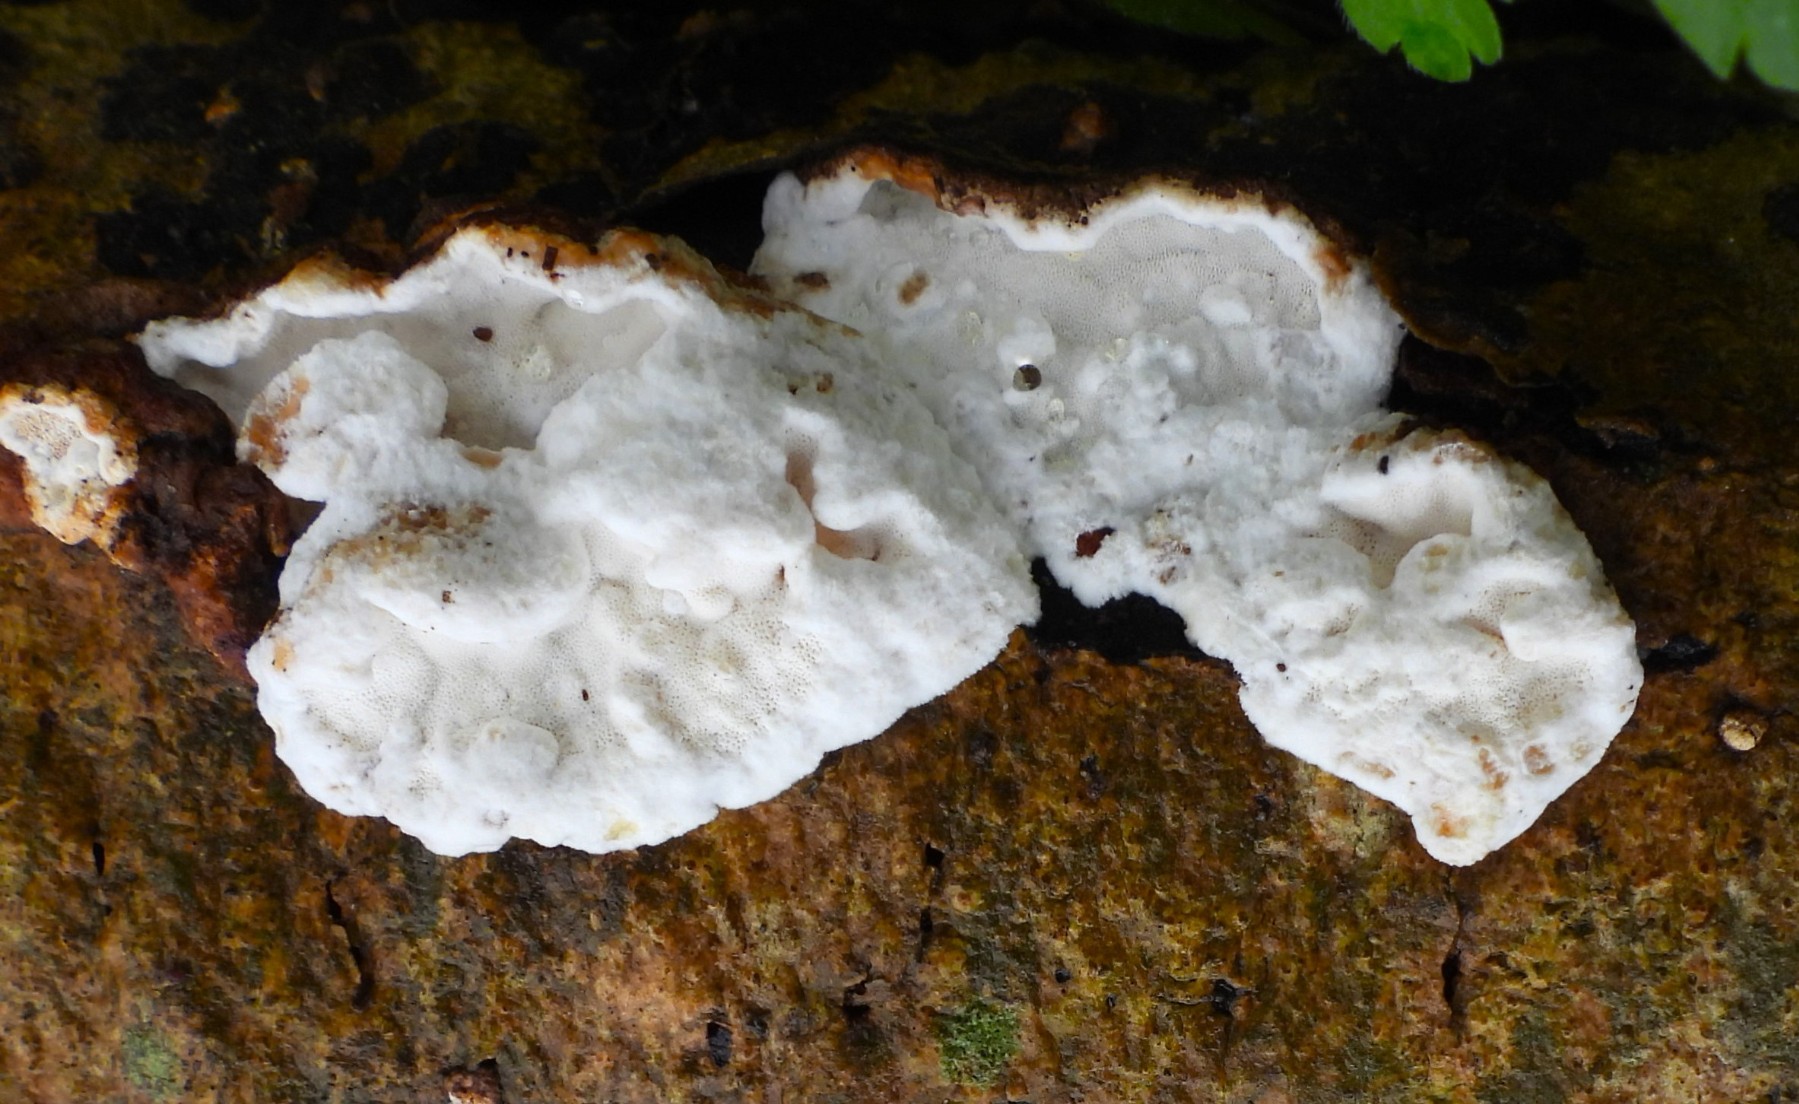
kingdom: Fungi
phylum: Basidiomycota
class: Agaricomycetes
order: Polyporales
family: Incrustoporiaceae
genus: Skeletocutis
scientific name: Skeletocutis nemoralis
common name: stor krystalporesvamp
